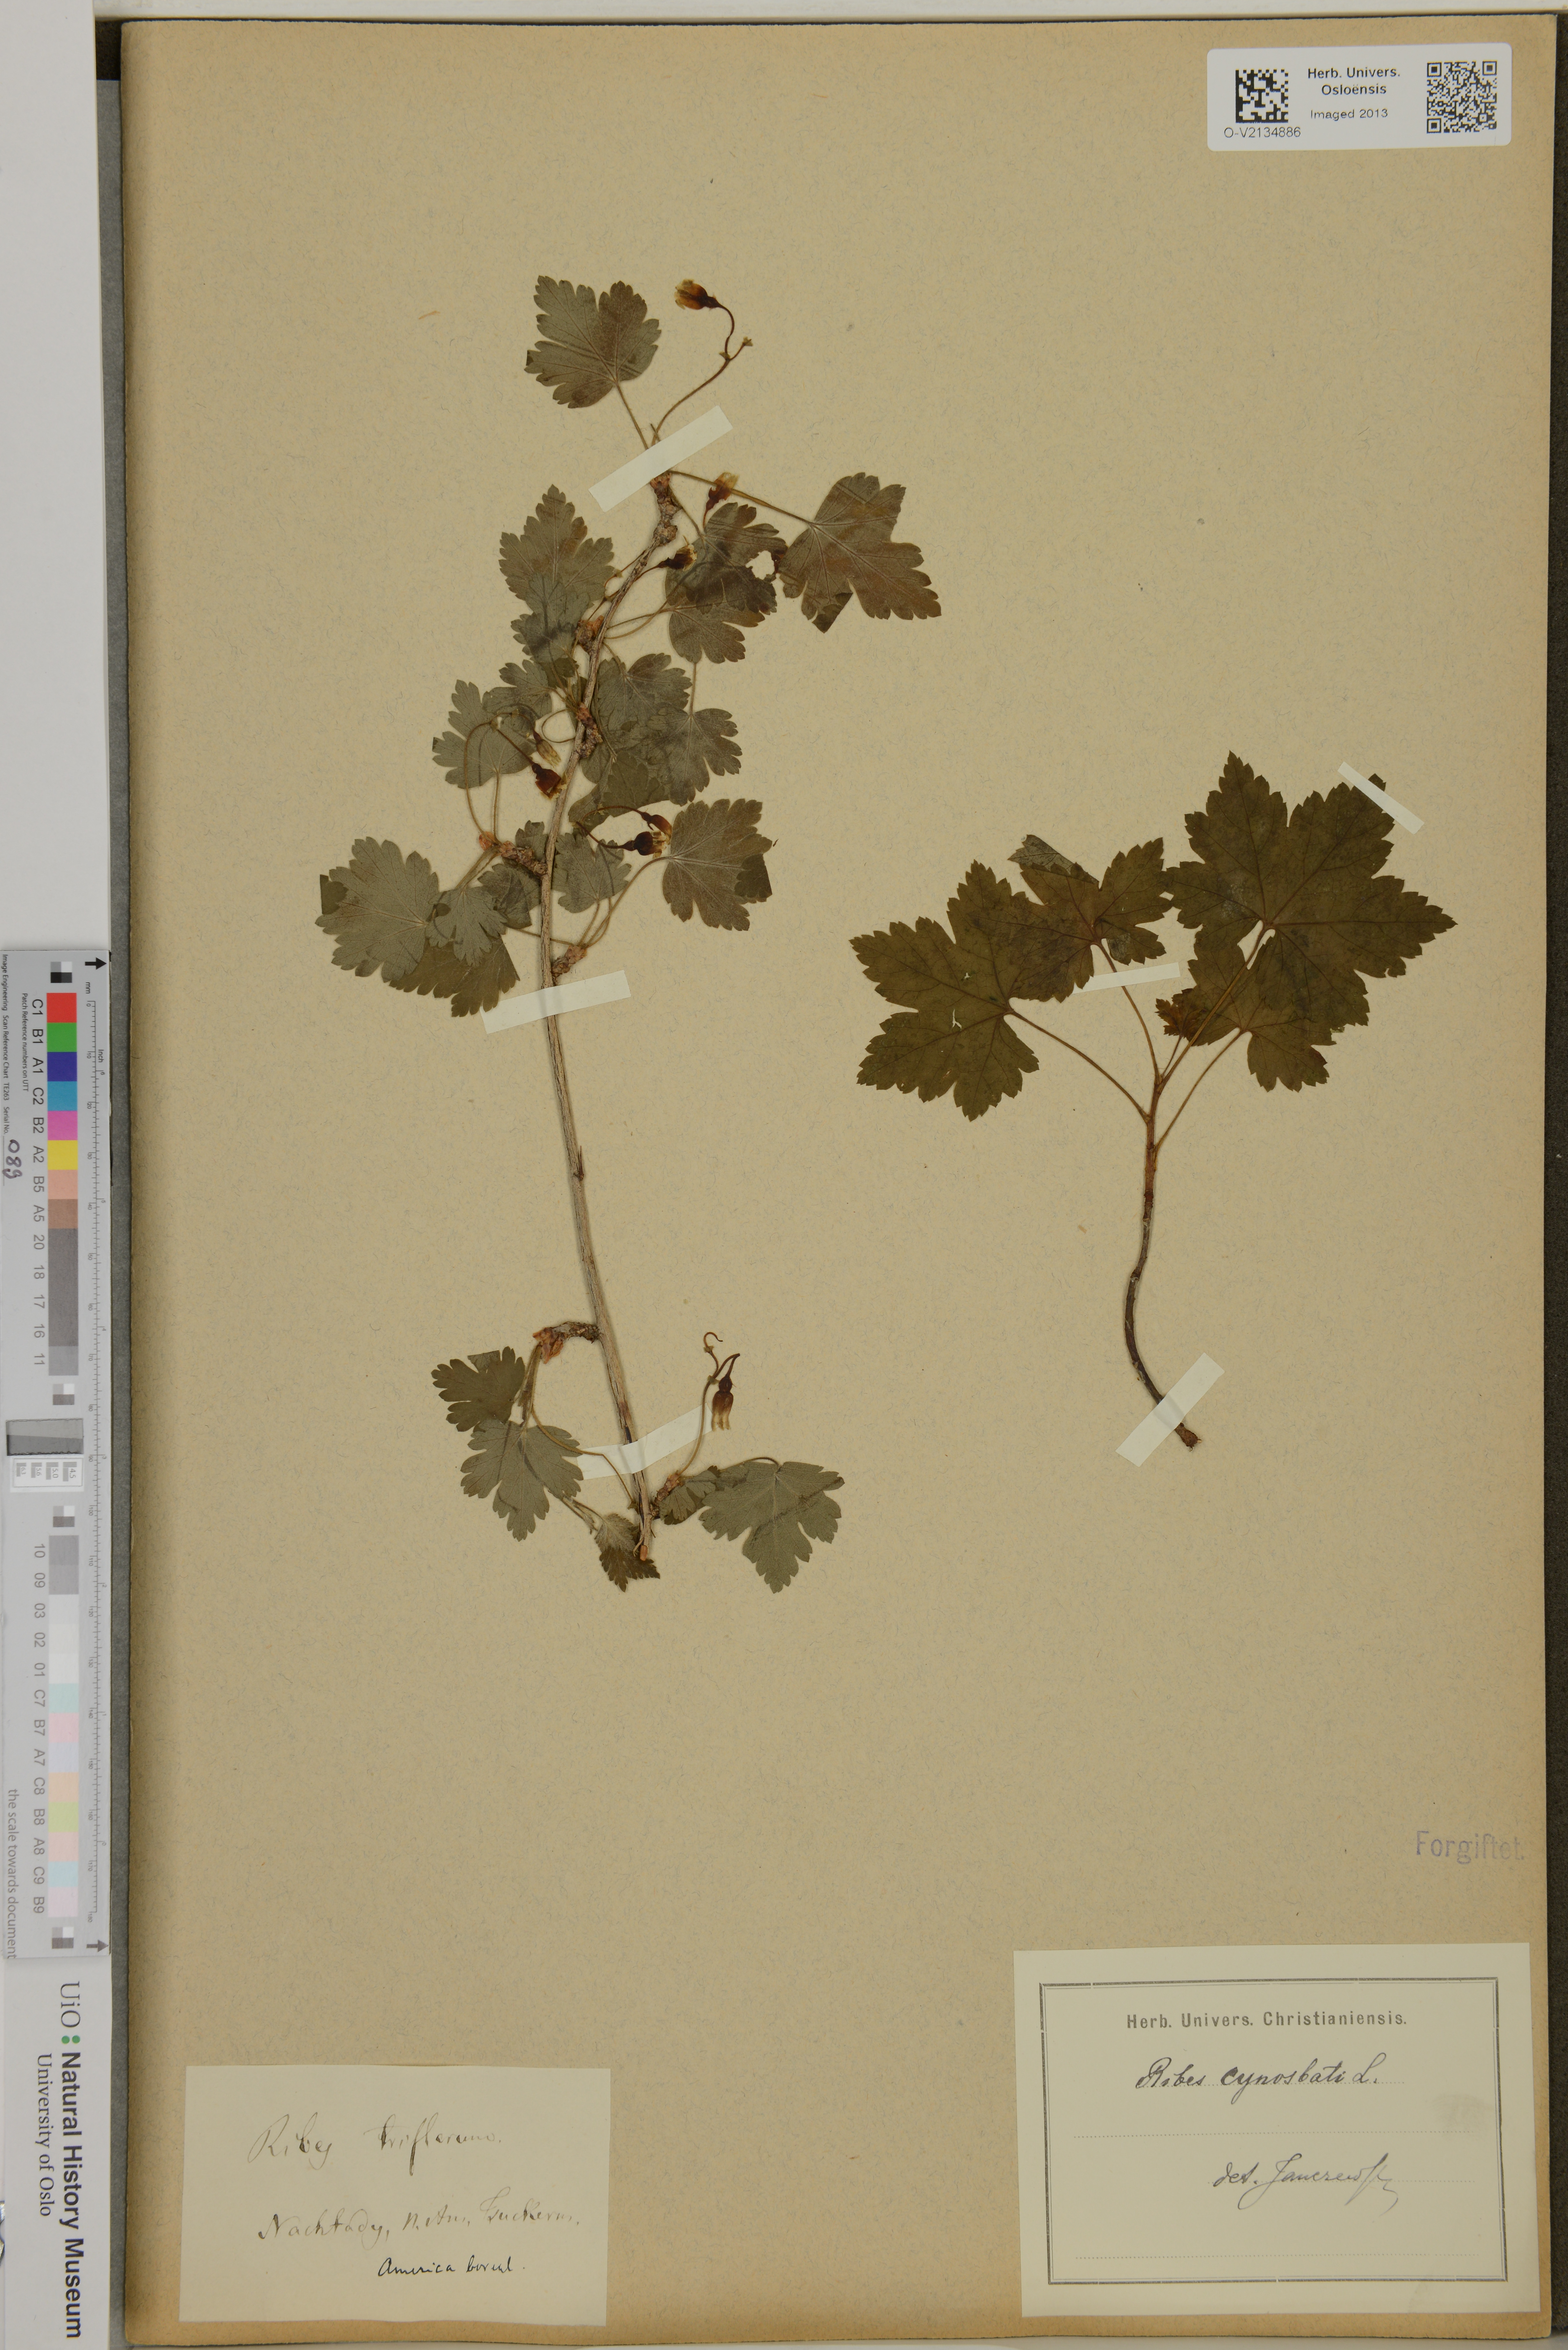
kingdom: Plantae
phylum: Tracheophyta
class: Magnoliopsida
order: Saxifragales
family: Grossulariaceae
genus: Ribes
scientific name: Ribes cynosbati
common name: American gooseberry
